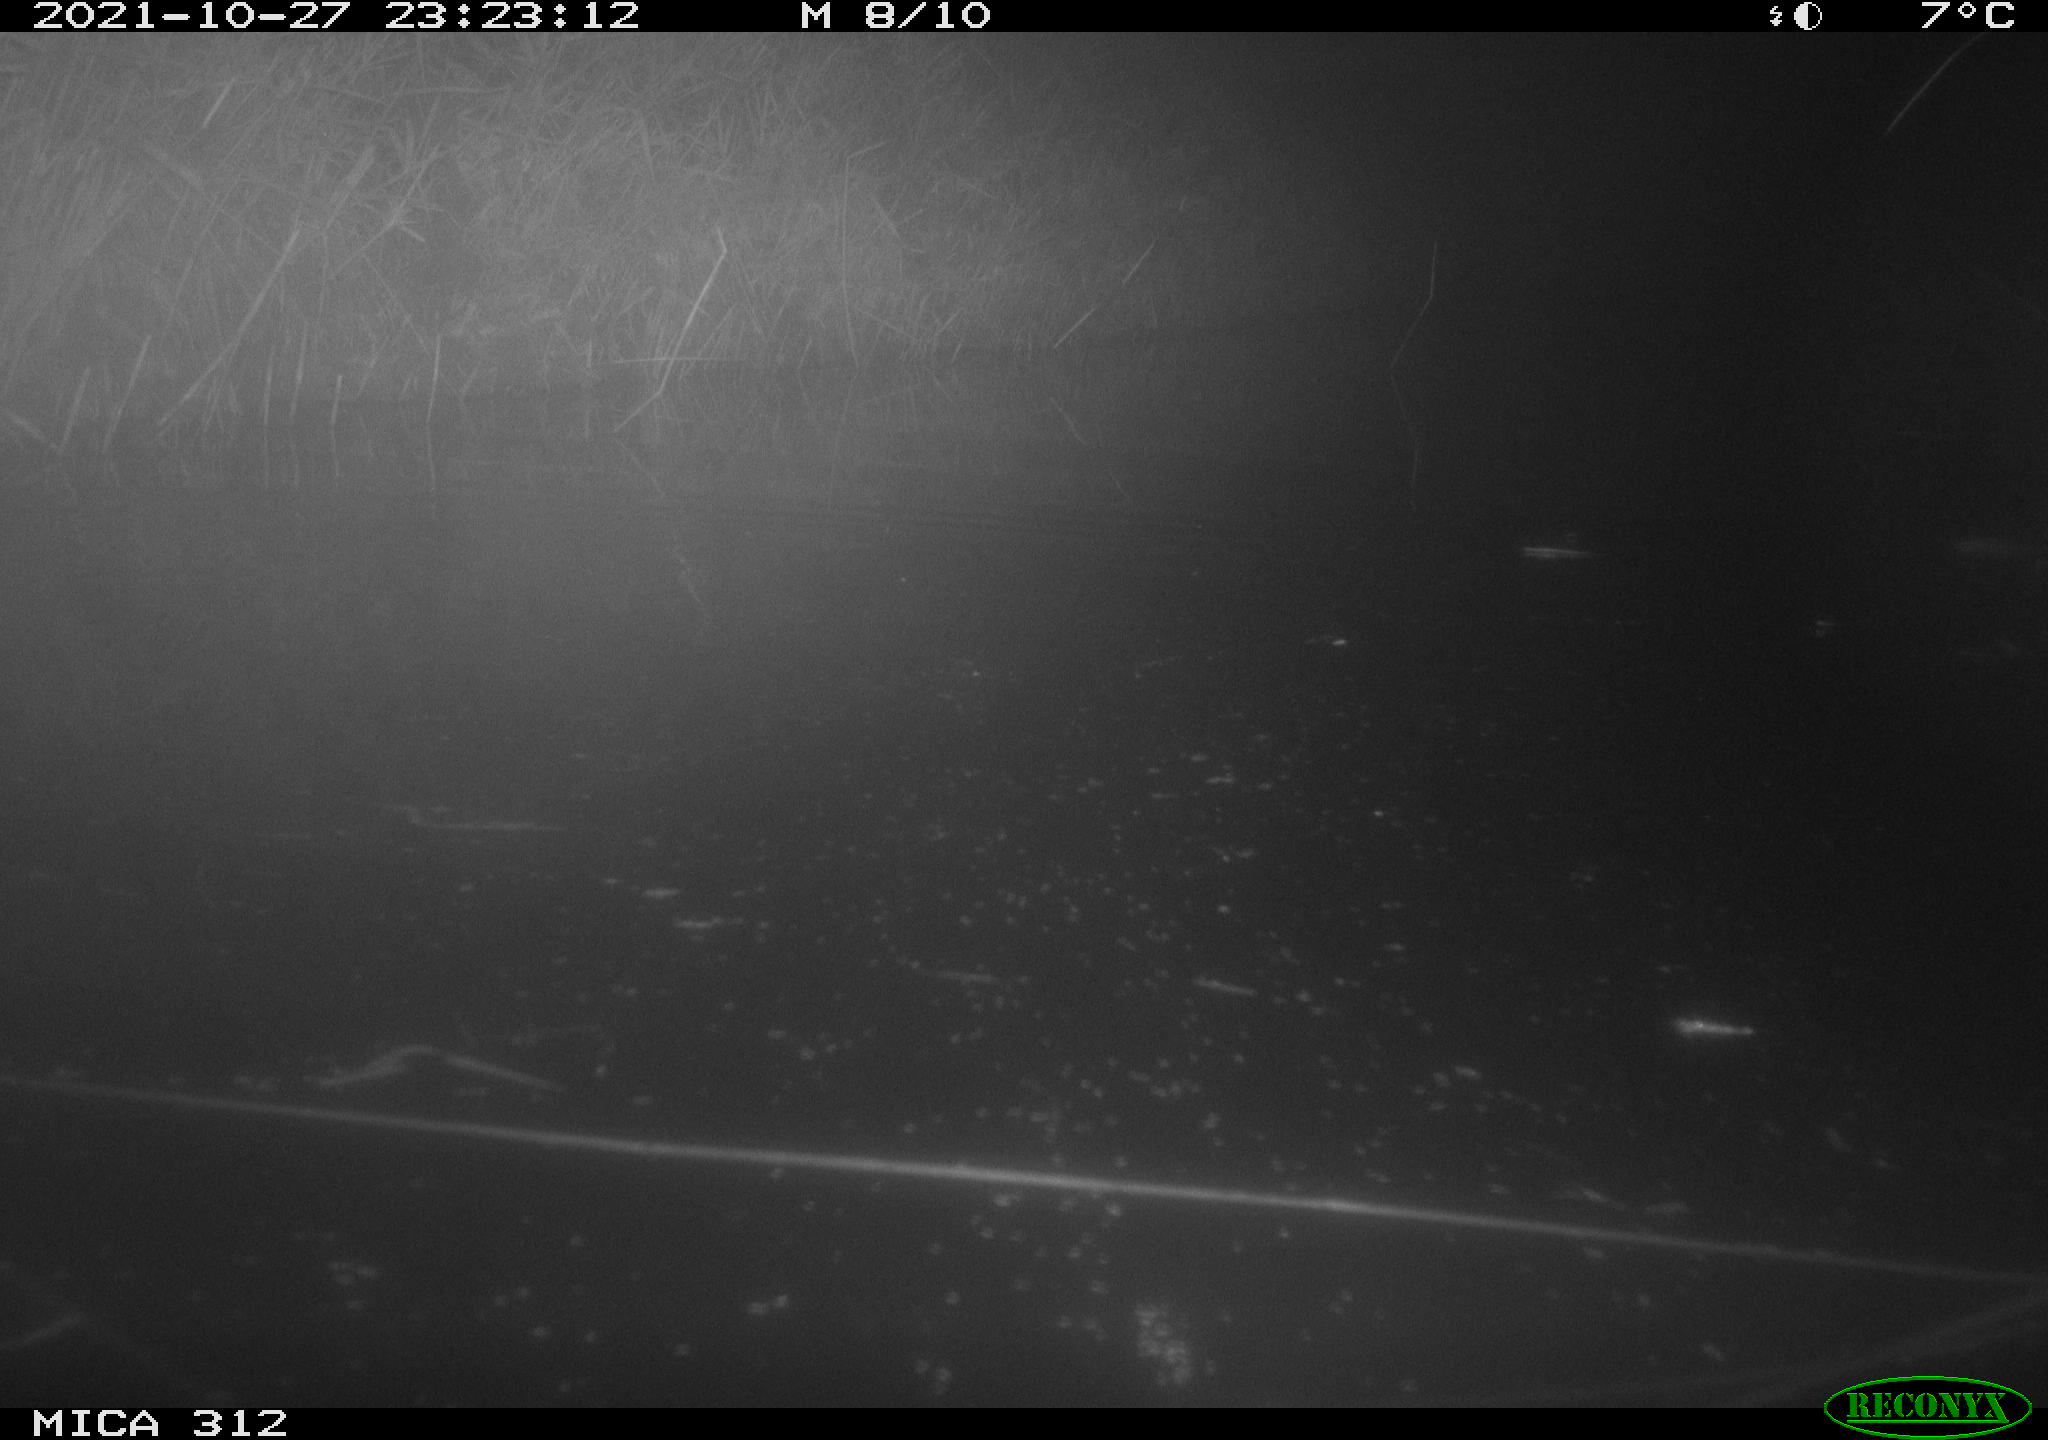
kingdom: Animalia
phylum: Chordata
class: Mammalia
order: Rodentia
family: Muridae
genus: Rattus
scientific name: Rattus norvegicus
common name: Brown rat
